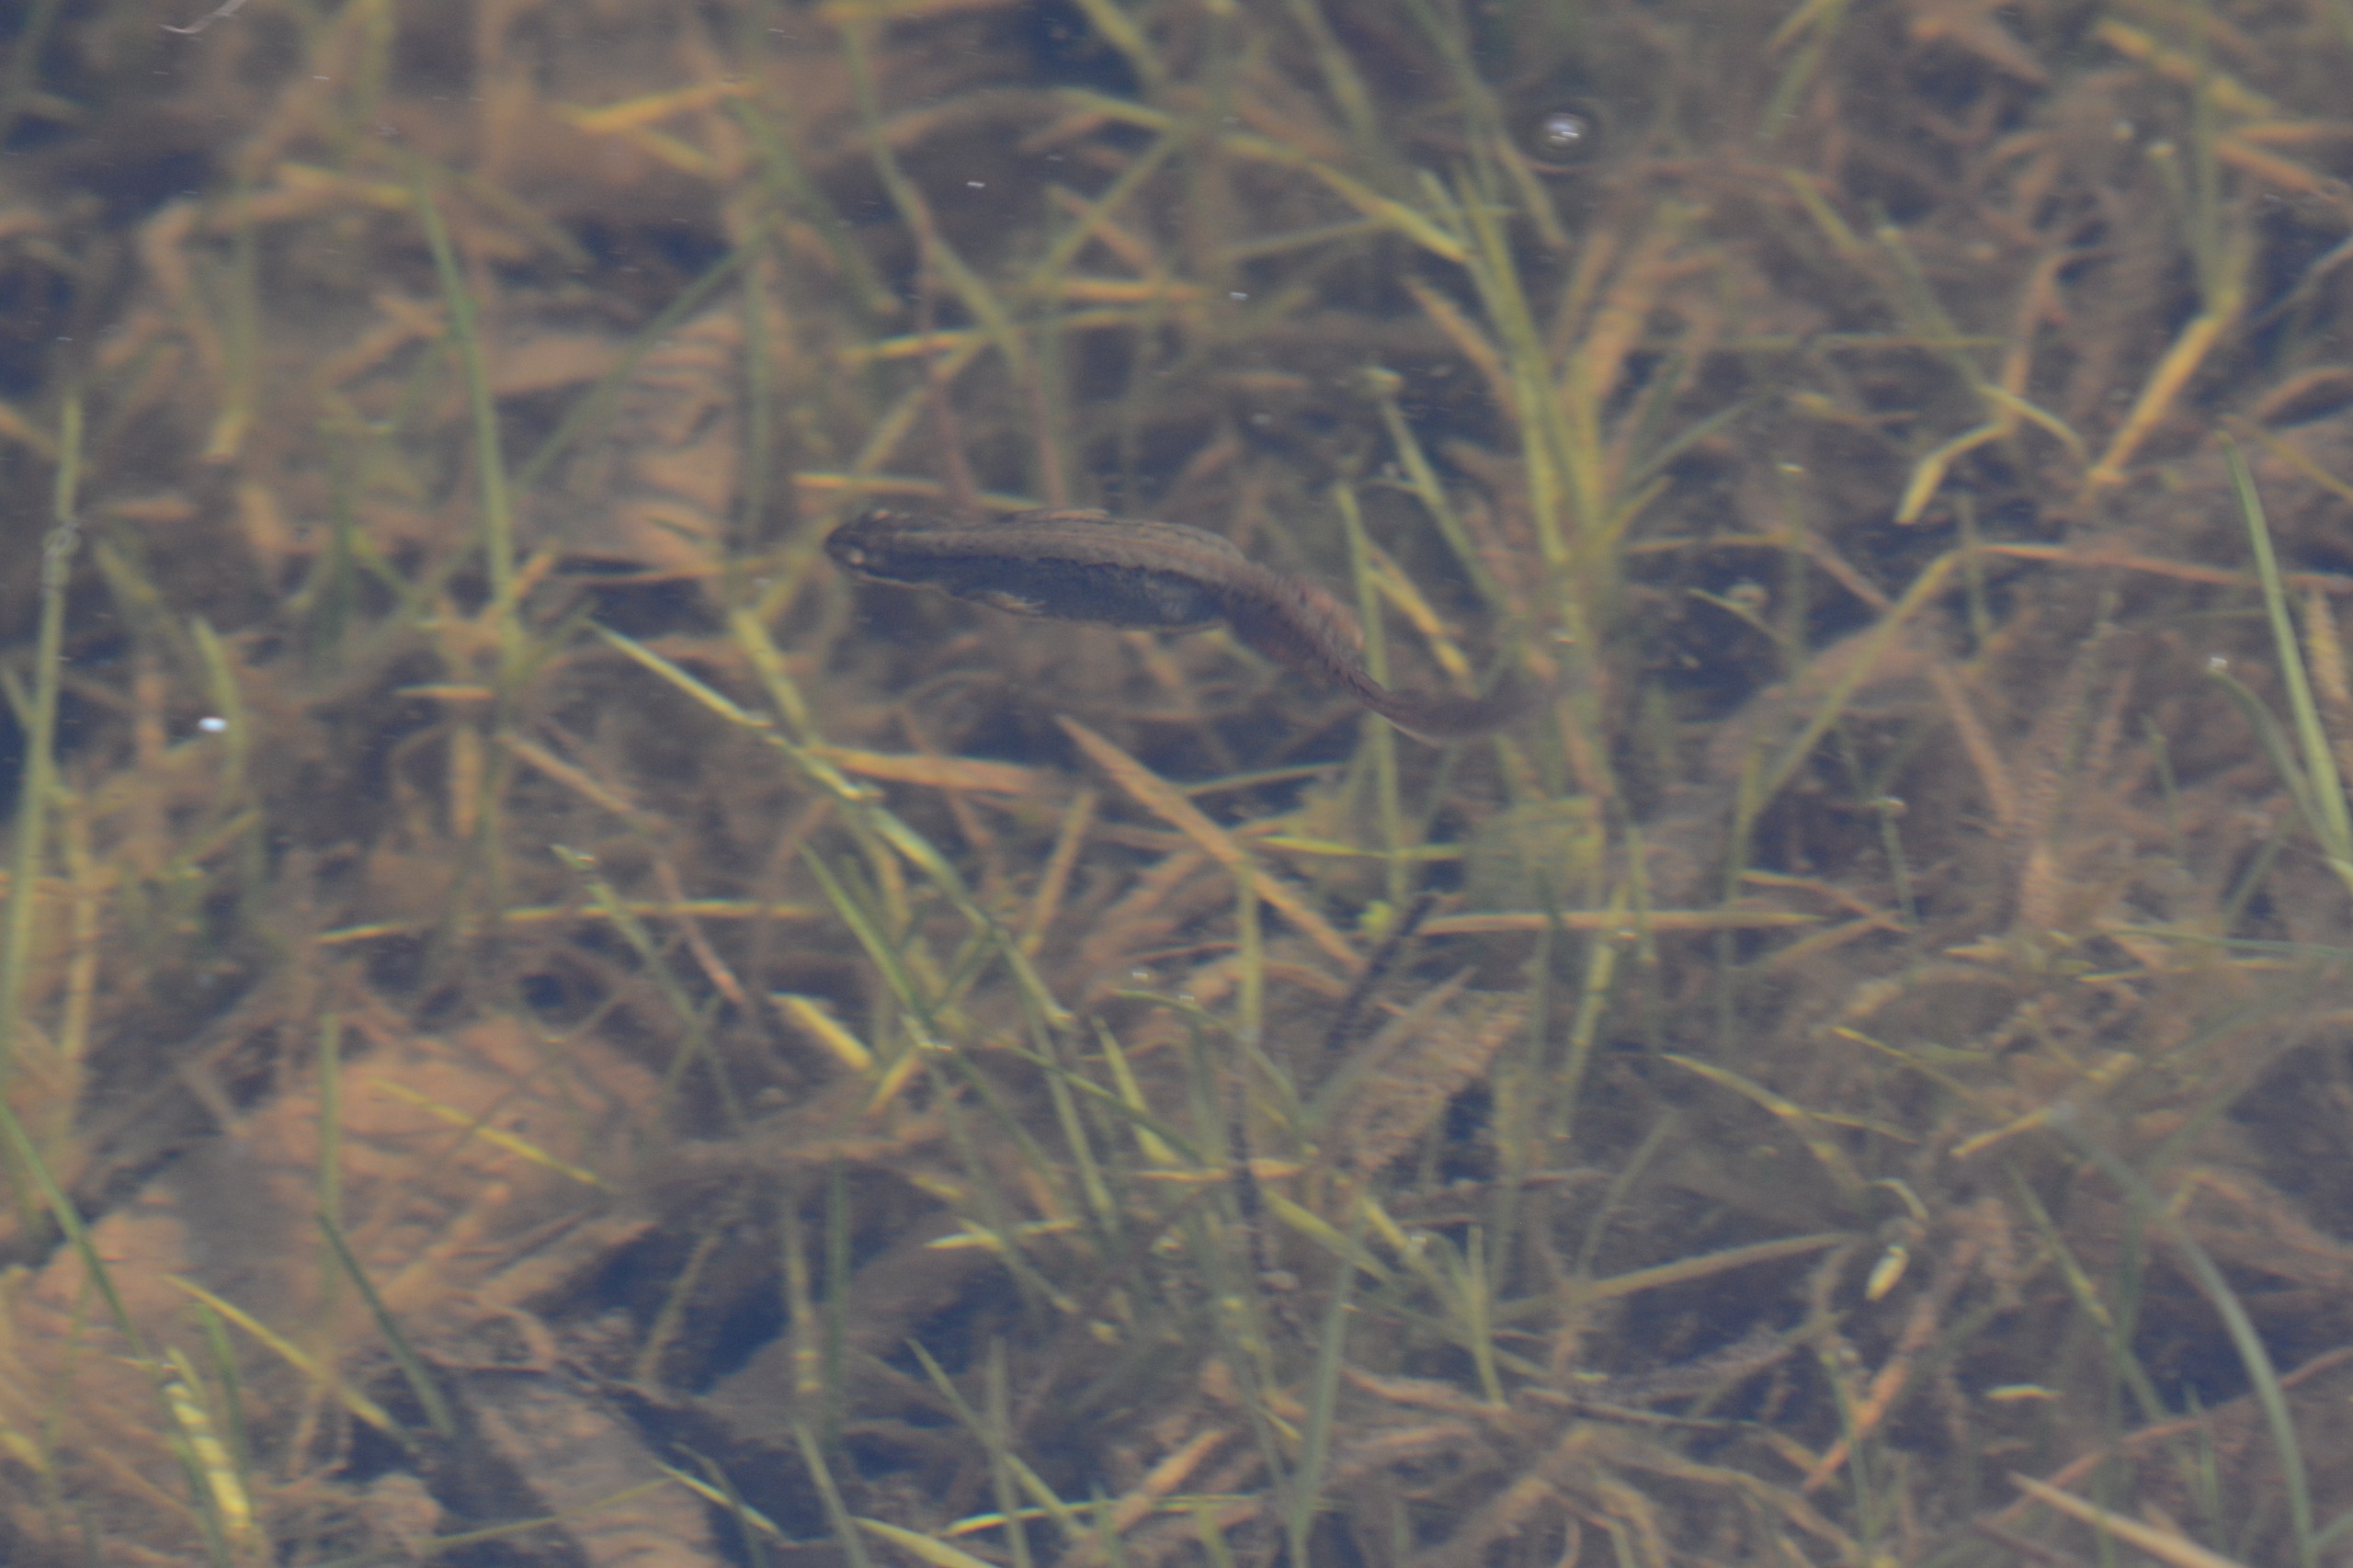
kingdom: Animalia
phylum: Chordata
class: Amphibia
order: Caudata
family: Salamandridae
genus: Lissotriton
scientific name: Lissotriton vulgaris
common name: Lille vandsalamander
